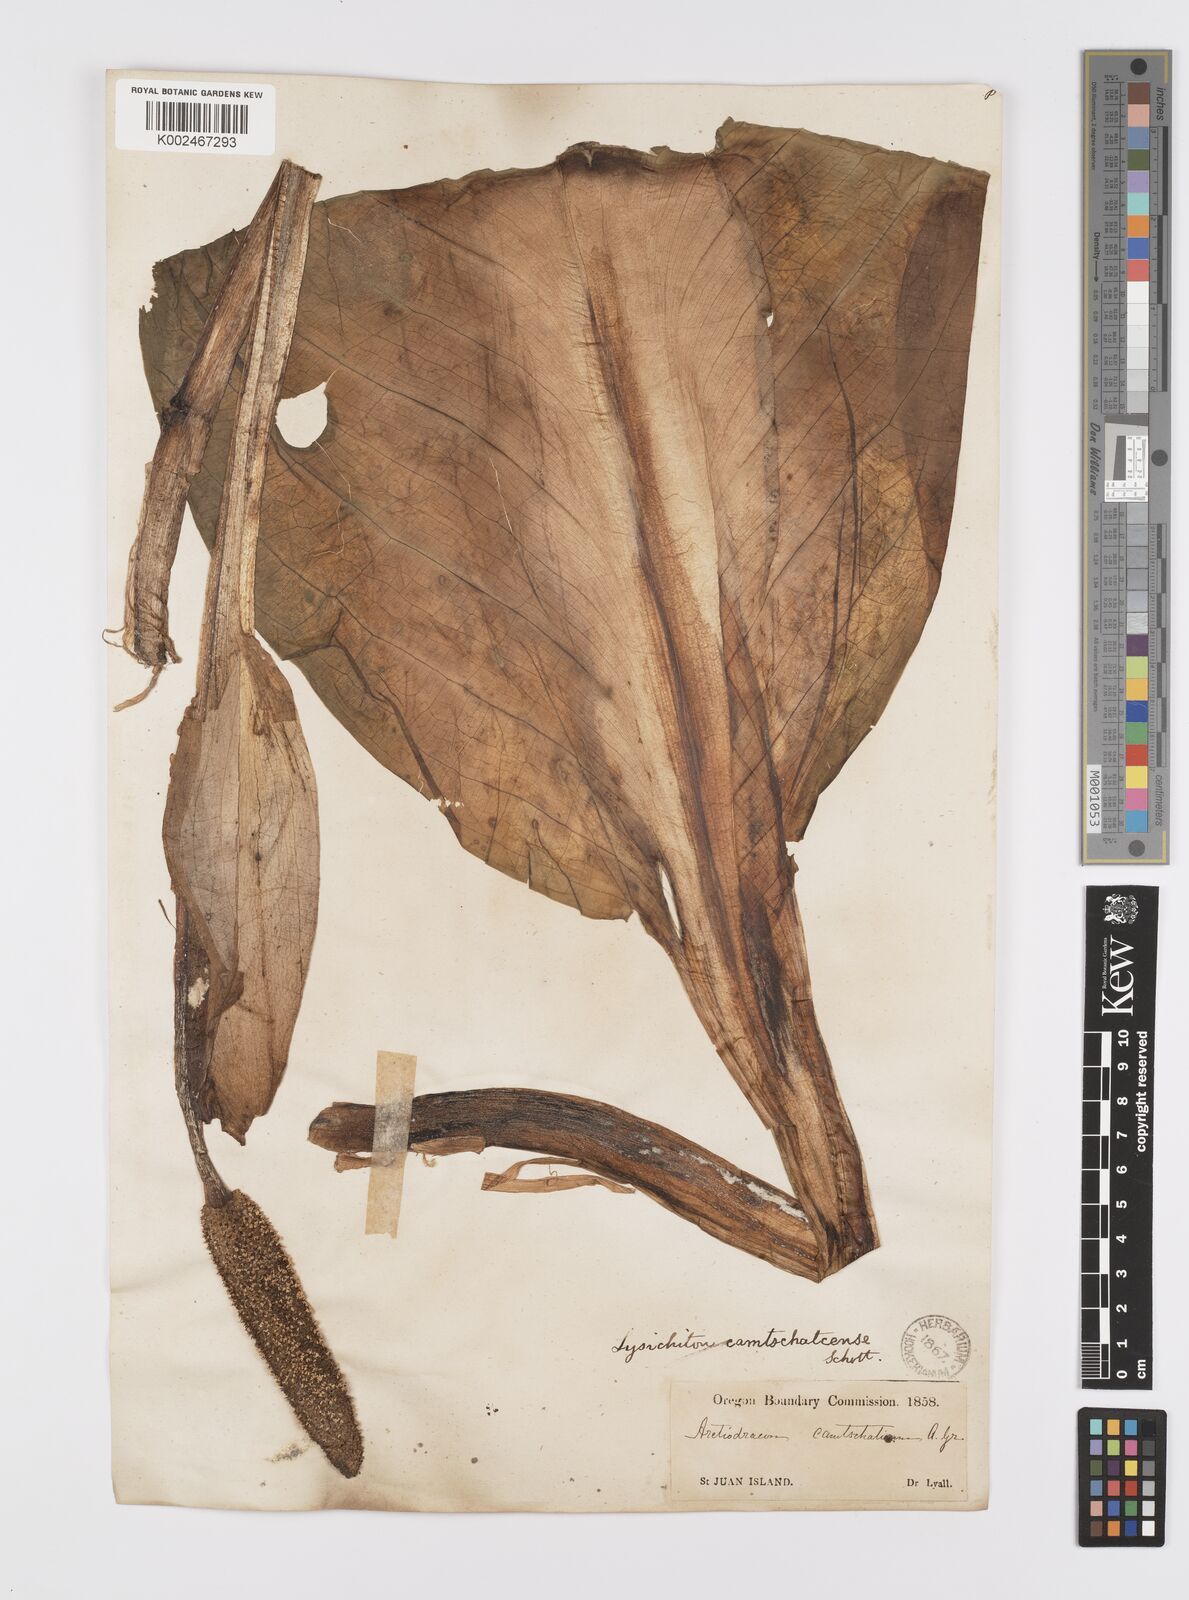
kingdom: Plantae
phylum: Tracheophyta
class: Liliopsida
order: Alismatales
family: Araceae
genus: Lysichiton
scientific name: Lysichiton americanus
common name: American skunk cabbage
